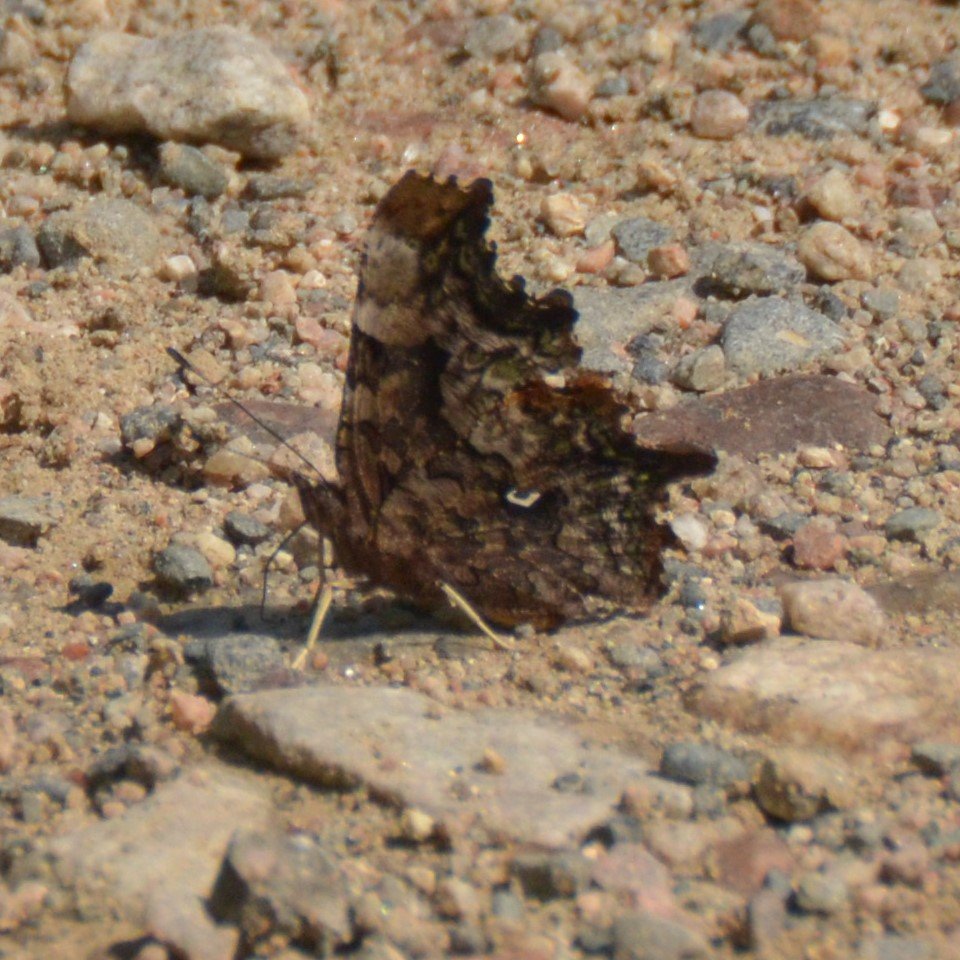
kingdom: Animalia
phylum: Arthropoda
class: Insecta
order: Lepidoptera
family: Nymphalidae
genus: Polygonia
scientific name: Polygonia faunus
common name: Green Comma
